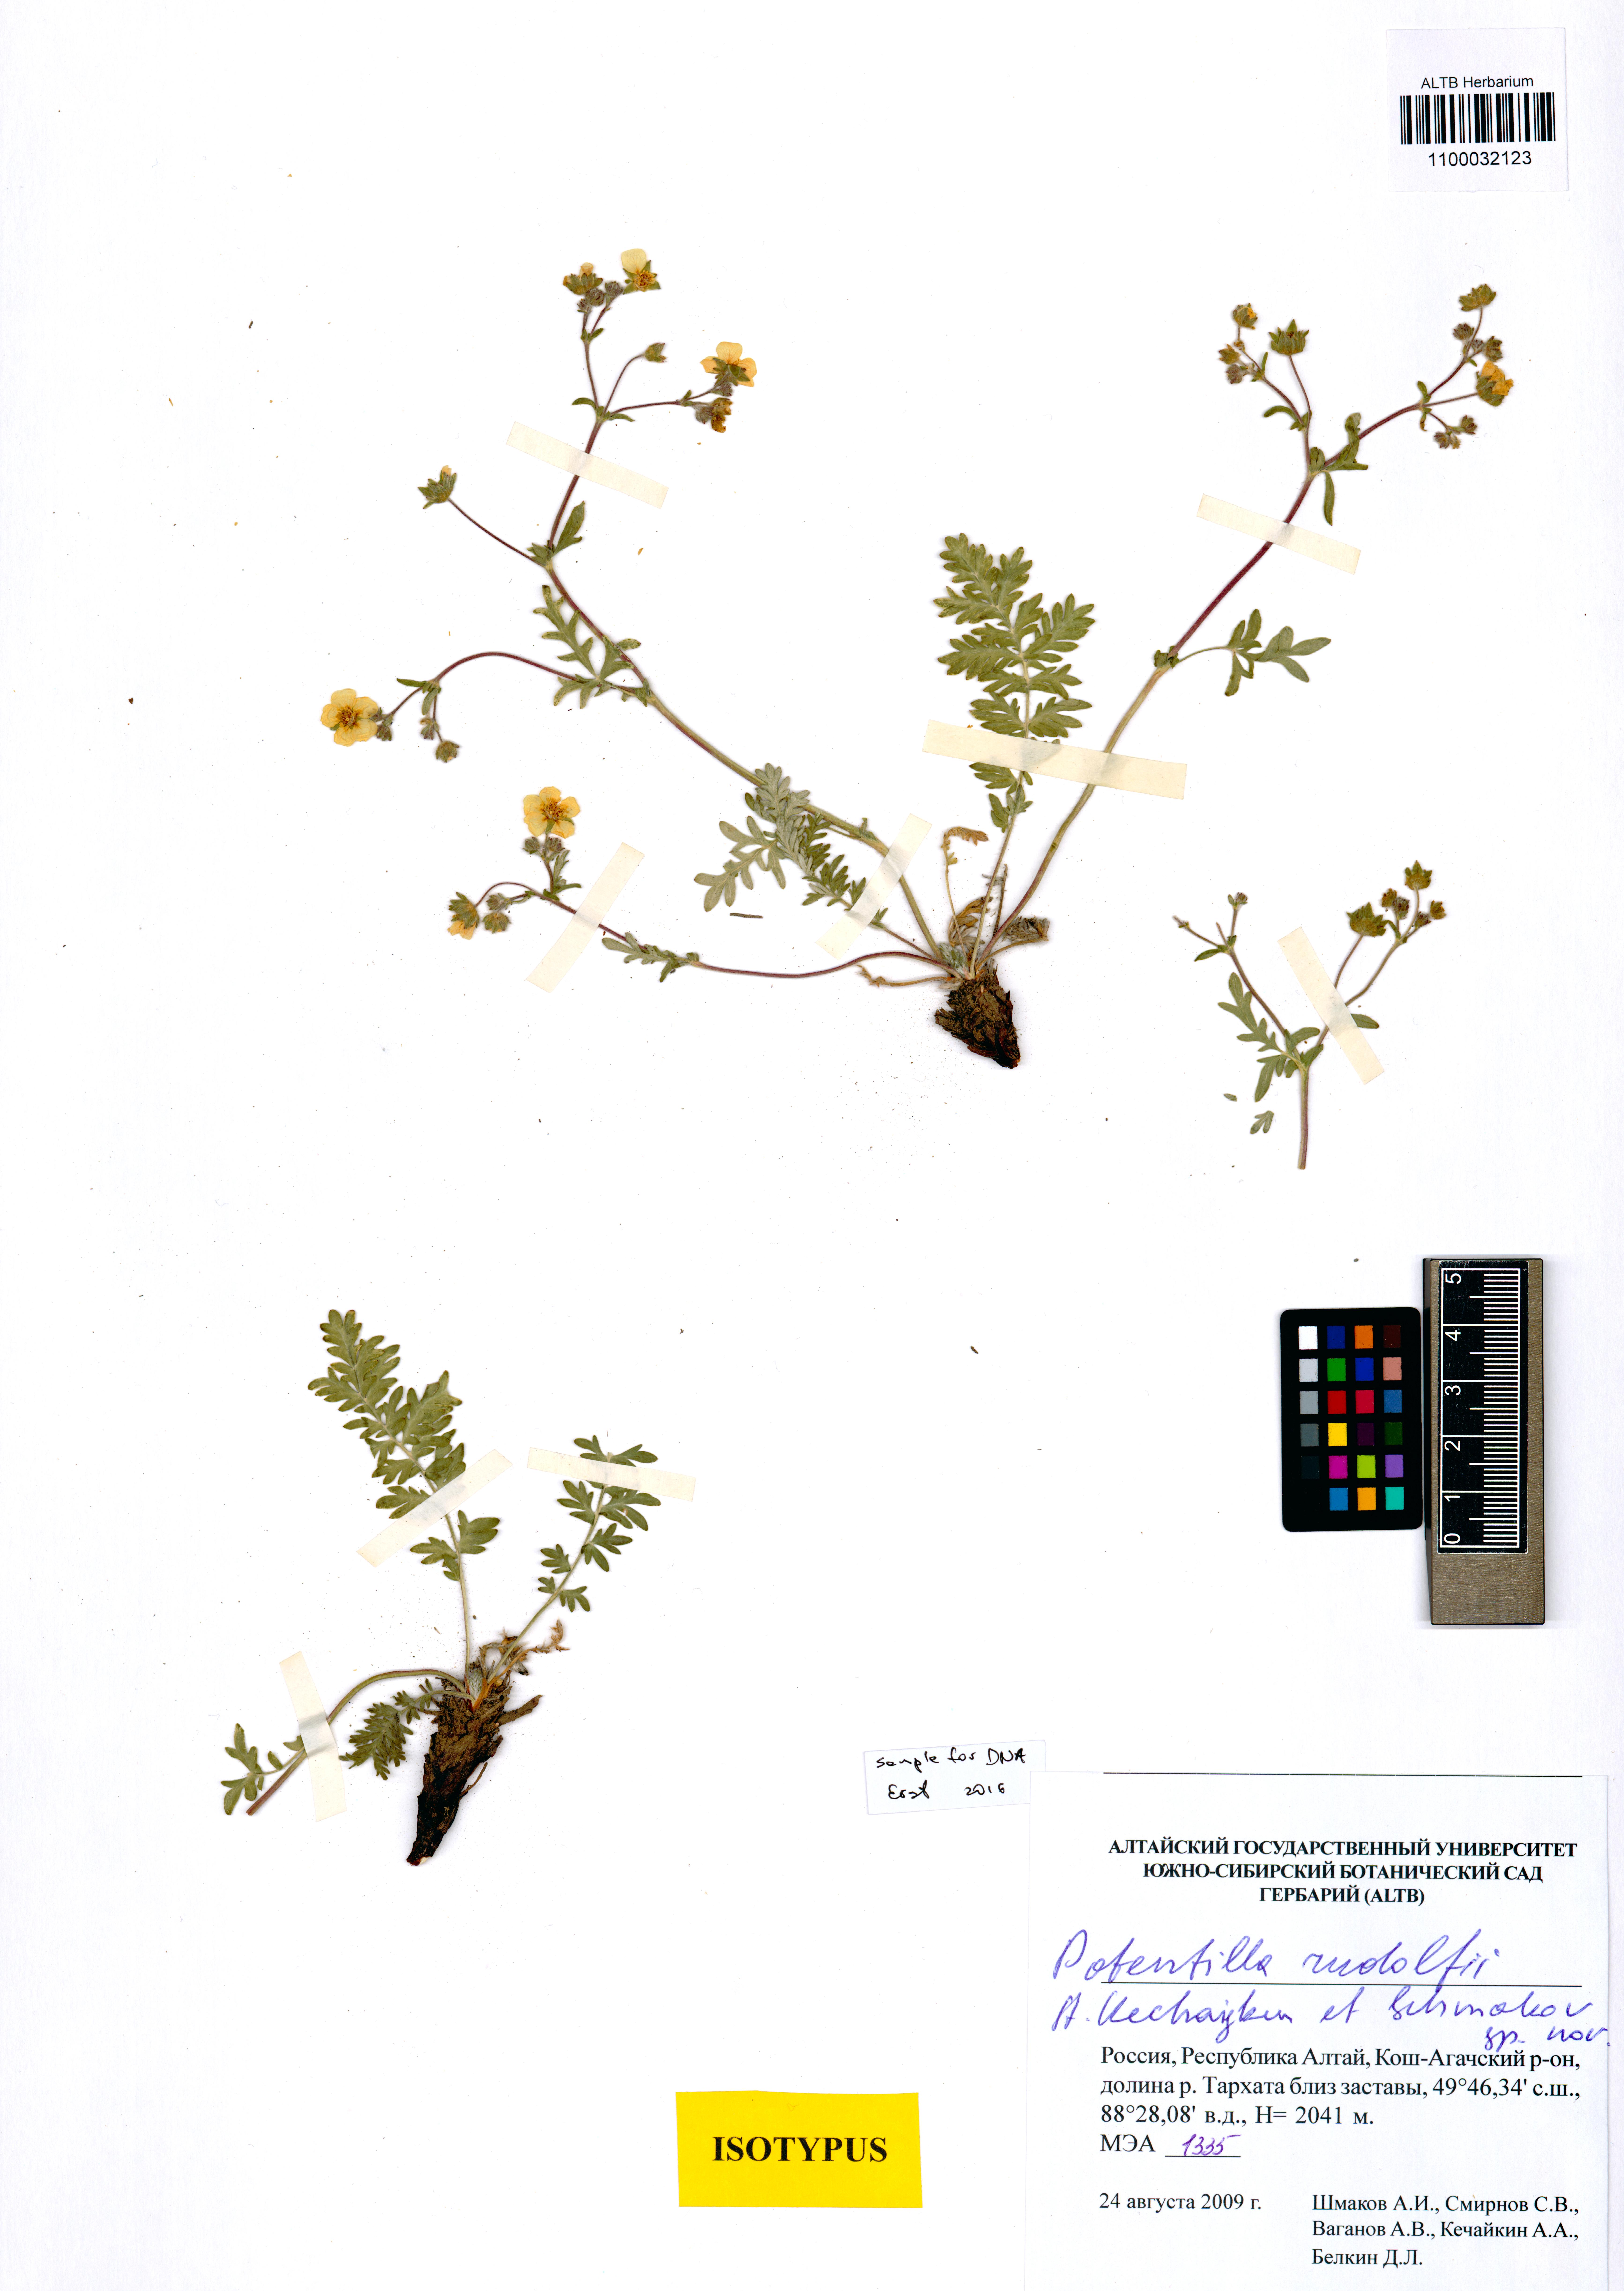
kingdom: Plantae
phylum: Tracheophyta
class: Magnoliopsida
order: Rosales
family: Rosaceae
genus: Potentilla
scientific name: Potentilla rudolfii
